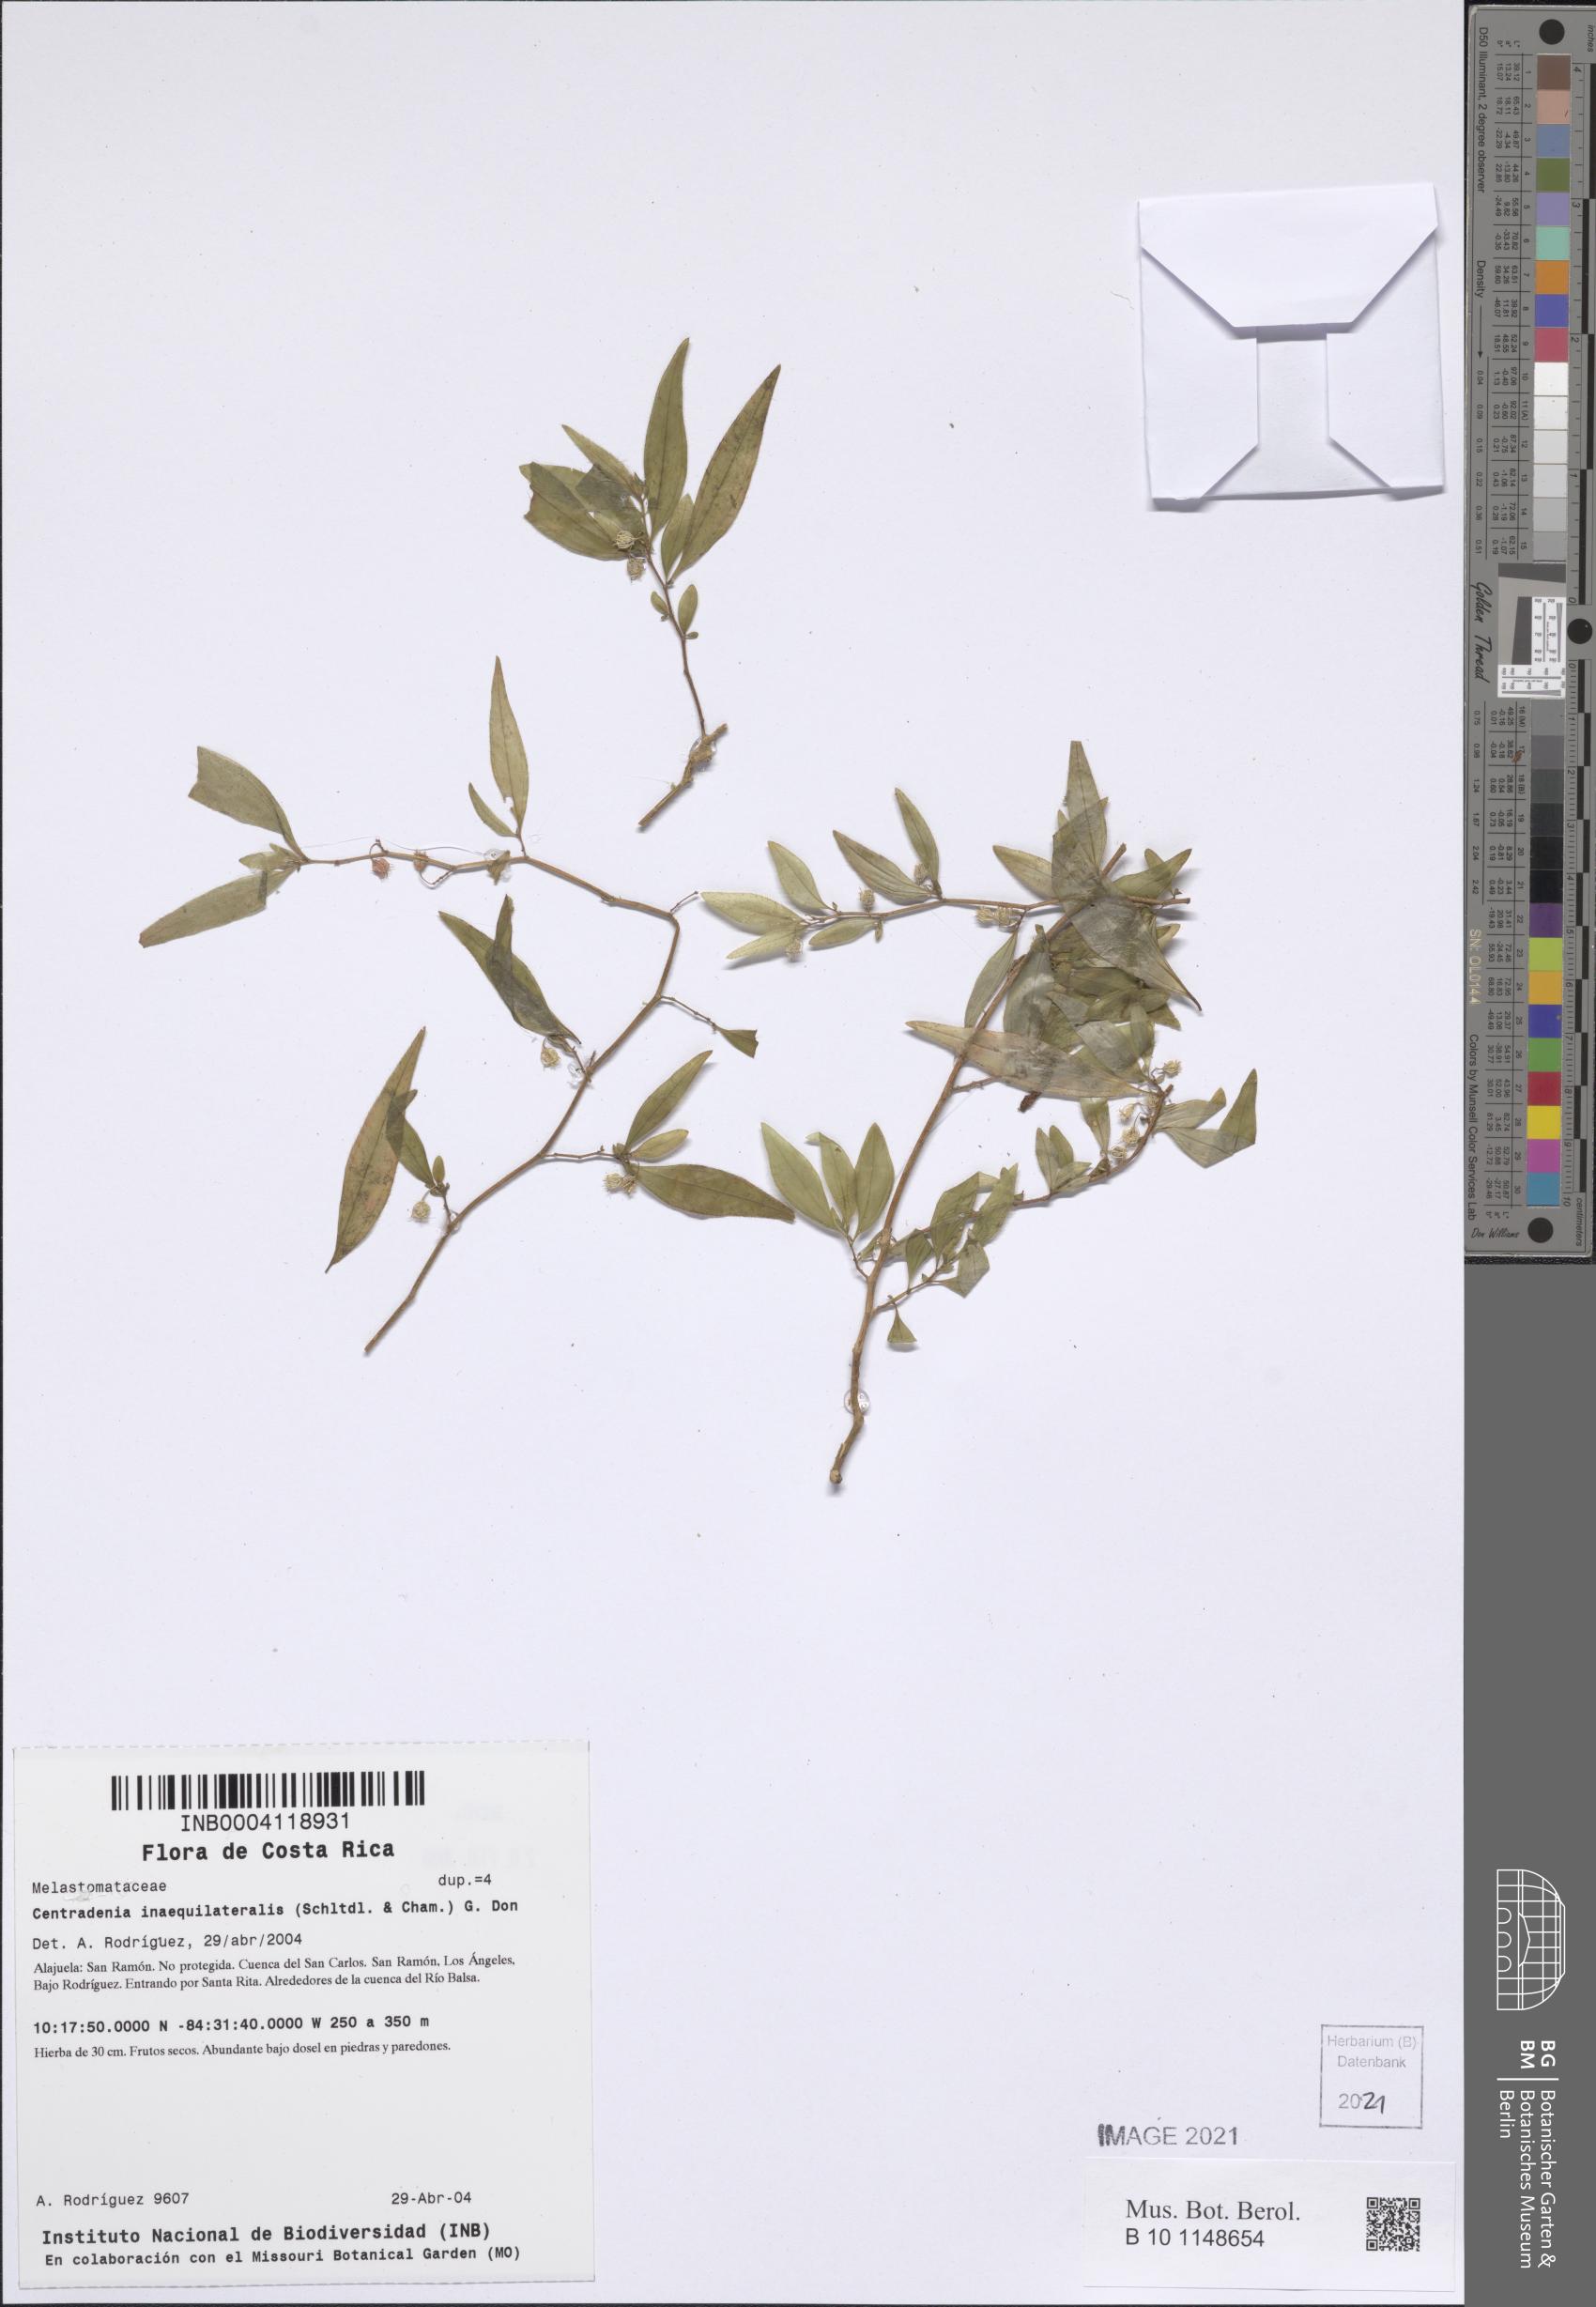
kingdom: Plantae
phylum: Tracheophyta
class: Magnoliopsida
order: Myrtales
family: Melastomataceae
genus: Centradenia
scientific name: Centradenia inaequilateralis
